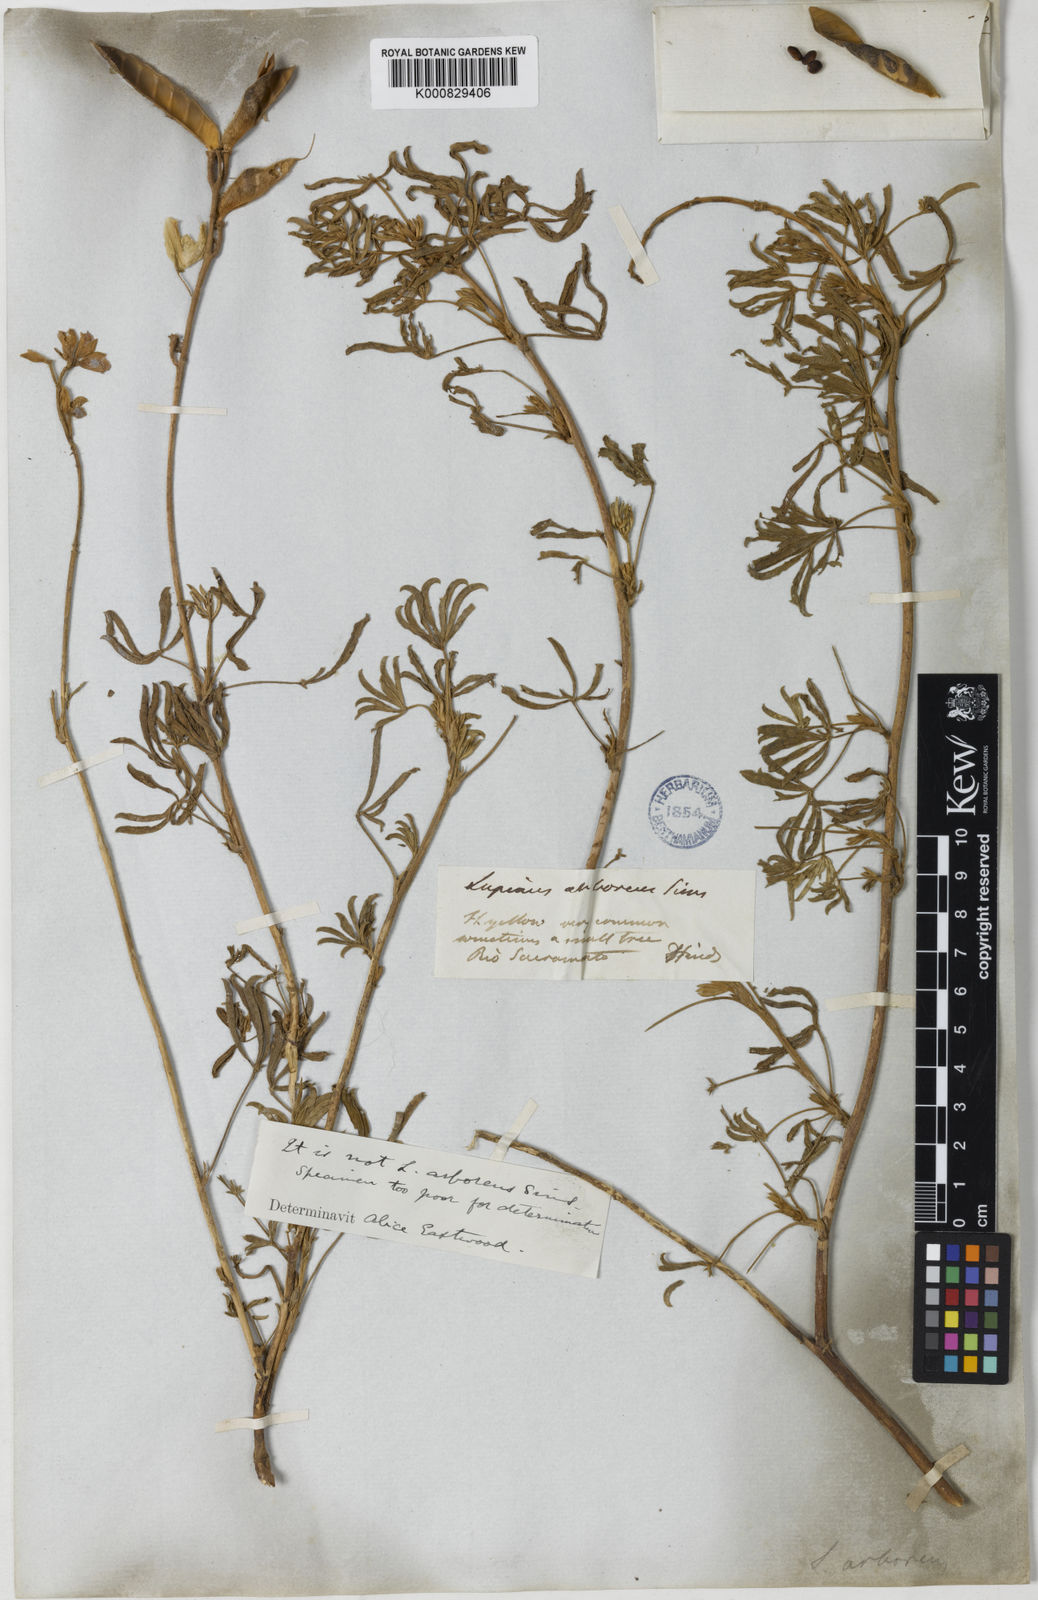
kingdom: Plantae
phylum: Tracheophyta
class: Magnoliopsida
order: Fabales
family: Fabaceae
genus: Lupinus
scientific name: Lupinus arboreus
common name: Yellow bush lupine
